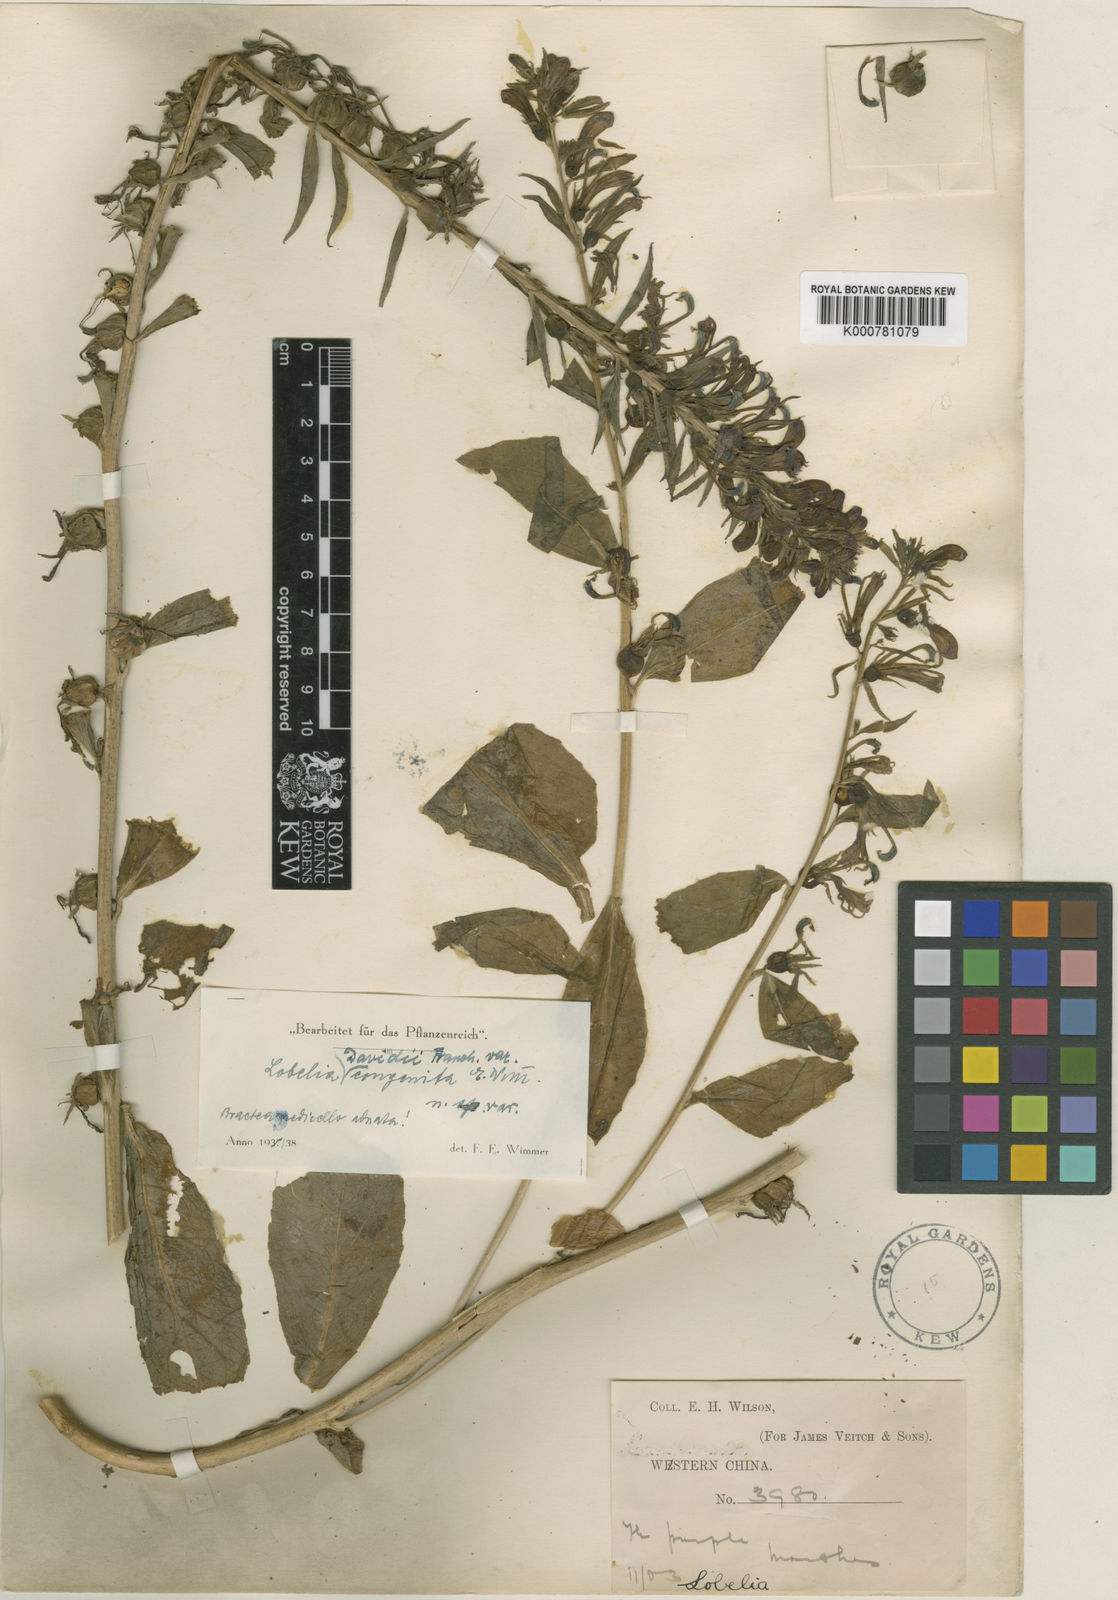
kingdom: Plantae
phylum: Tracheophyta
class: Magnoliopsida
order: Asterales
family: Campanulaceae
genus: Lobelia
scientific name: Lobelia davidii
